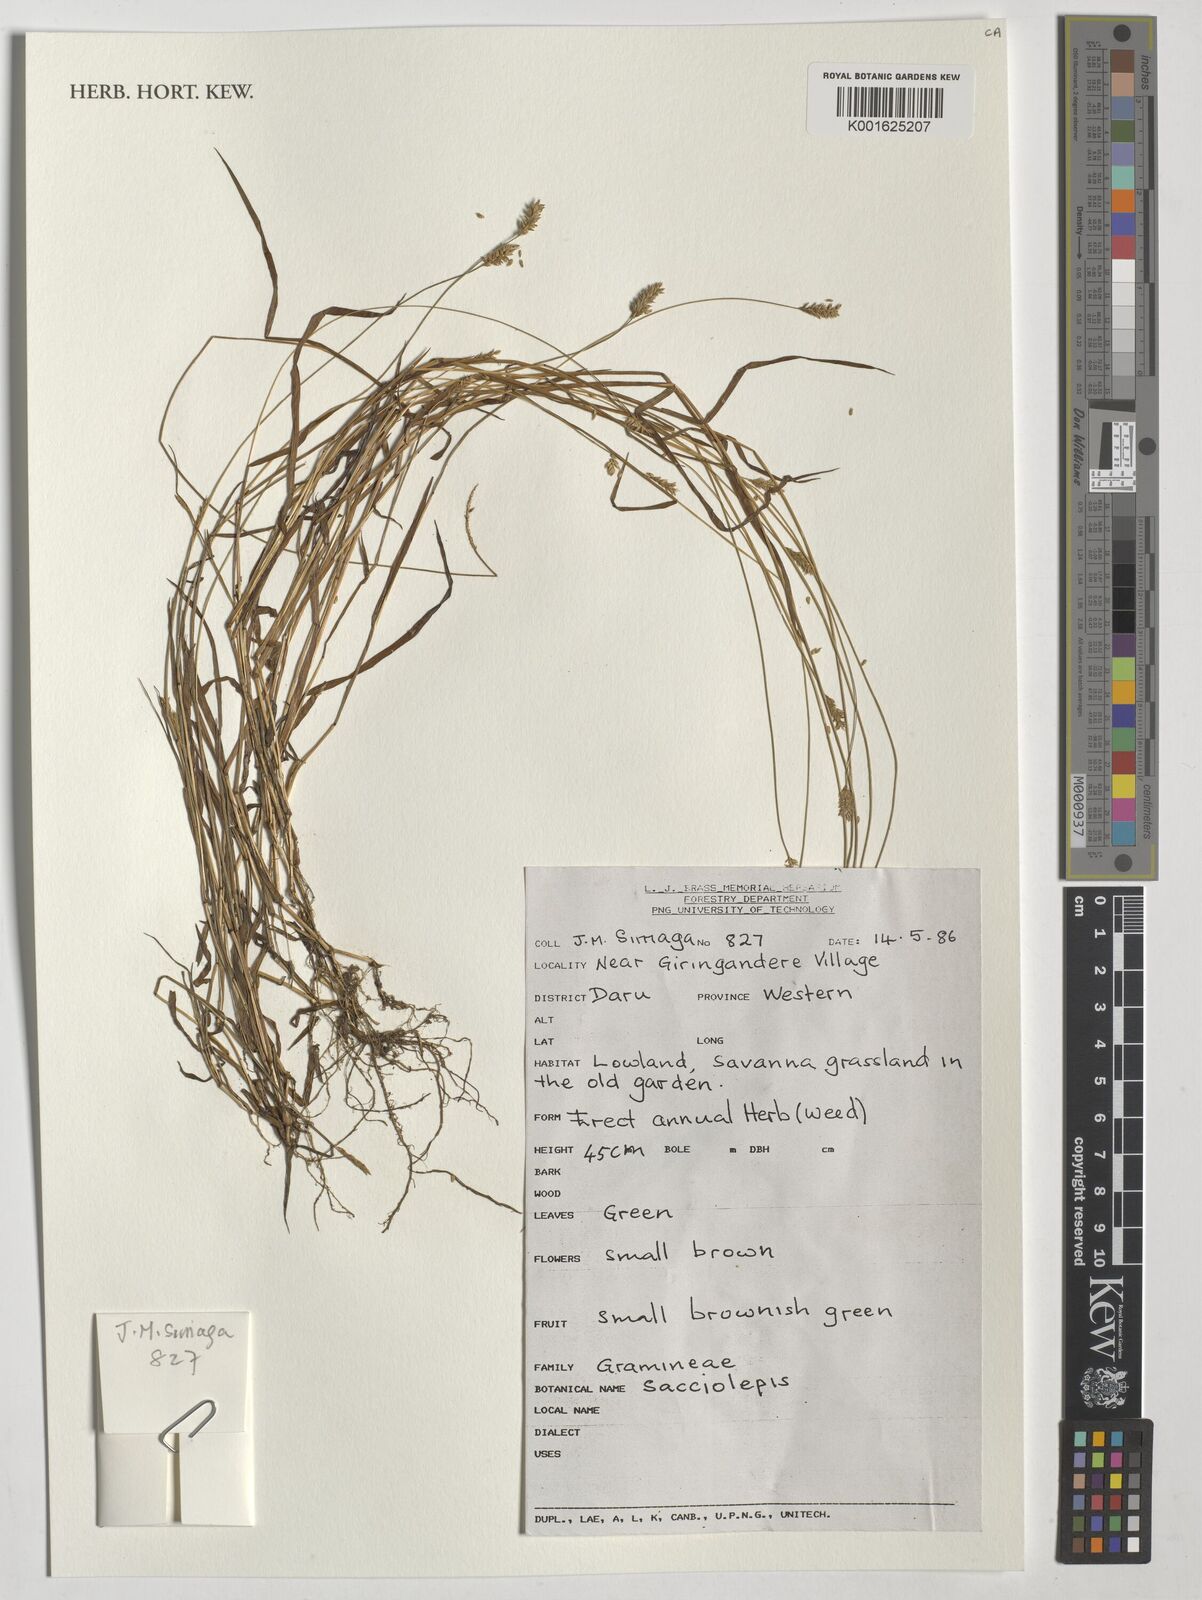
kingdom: Plantae
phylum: Tracheophyta
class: Liliopsida
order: Poales
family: Poaceae
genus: Sacciolepis
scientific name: Sacciolepis
